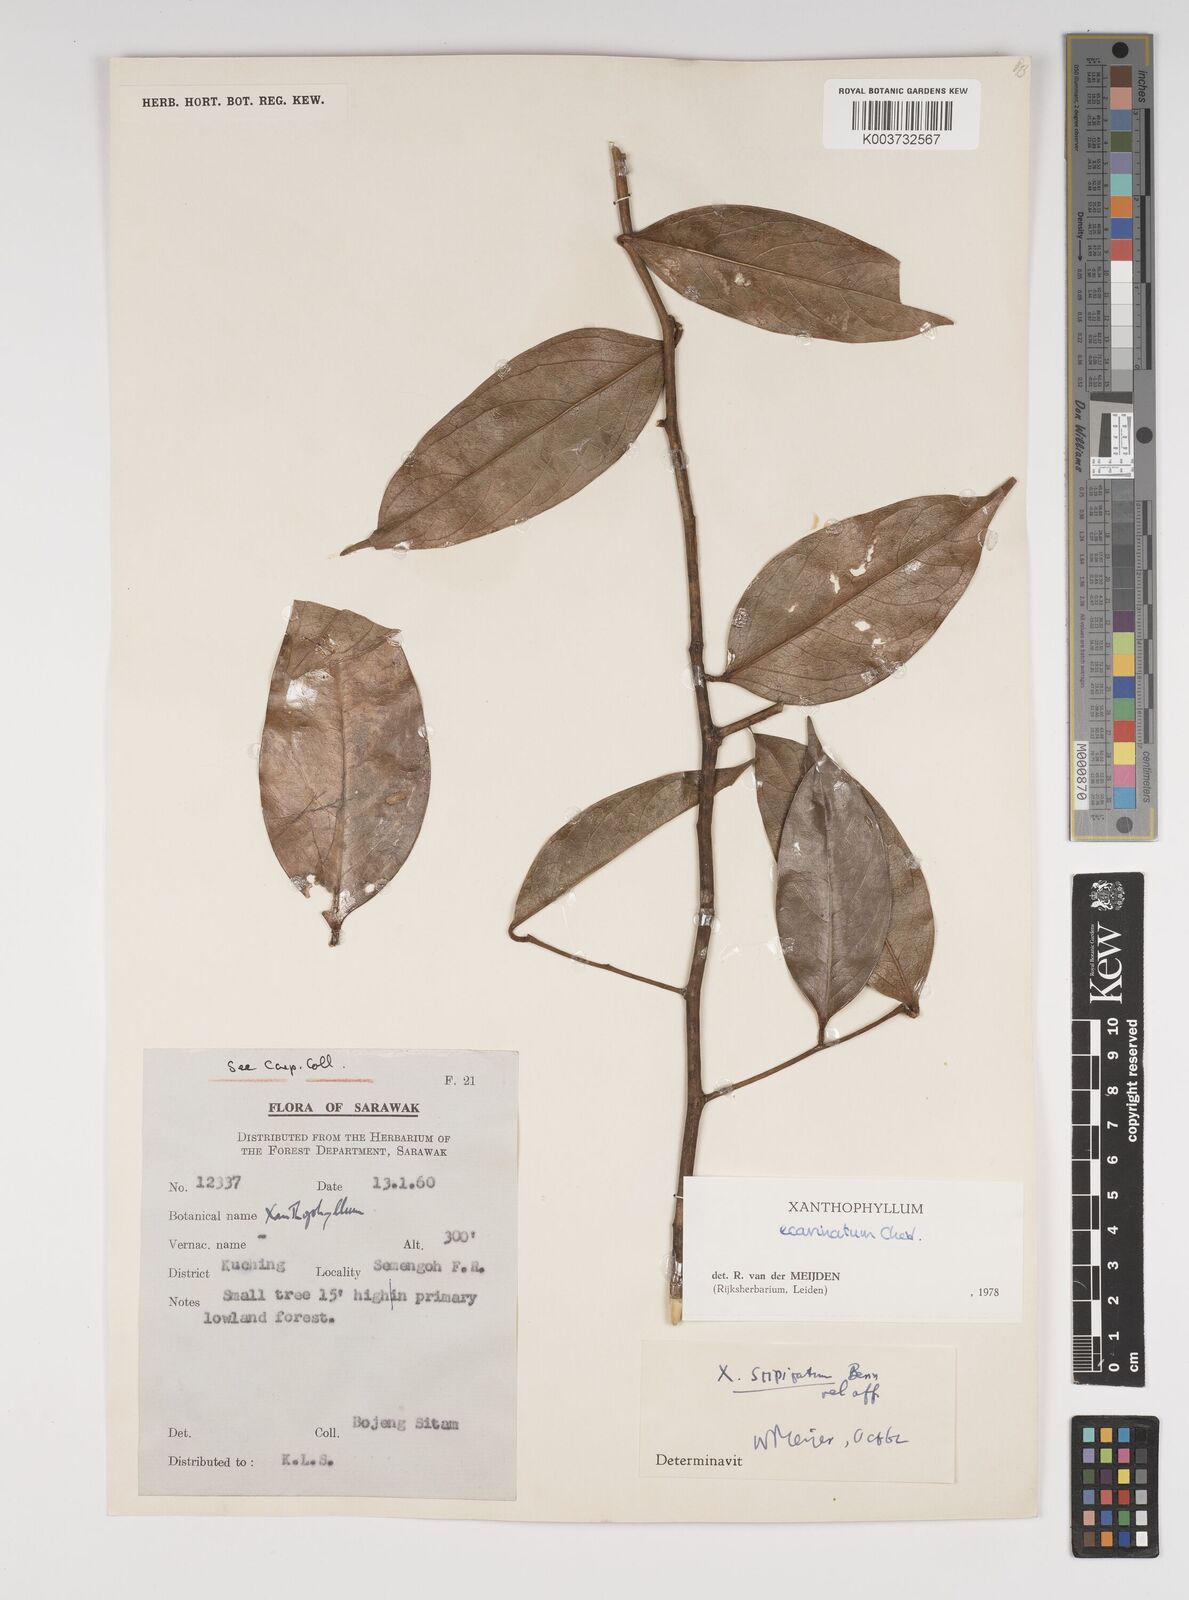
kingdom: Plantae
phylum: Tracheophyta
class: Magnoliopsida
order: Fabales
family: Polygalaceae
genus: Xanthophyllum
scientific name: Xanthophyllum ecarinatum
